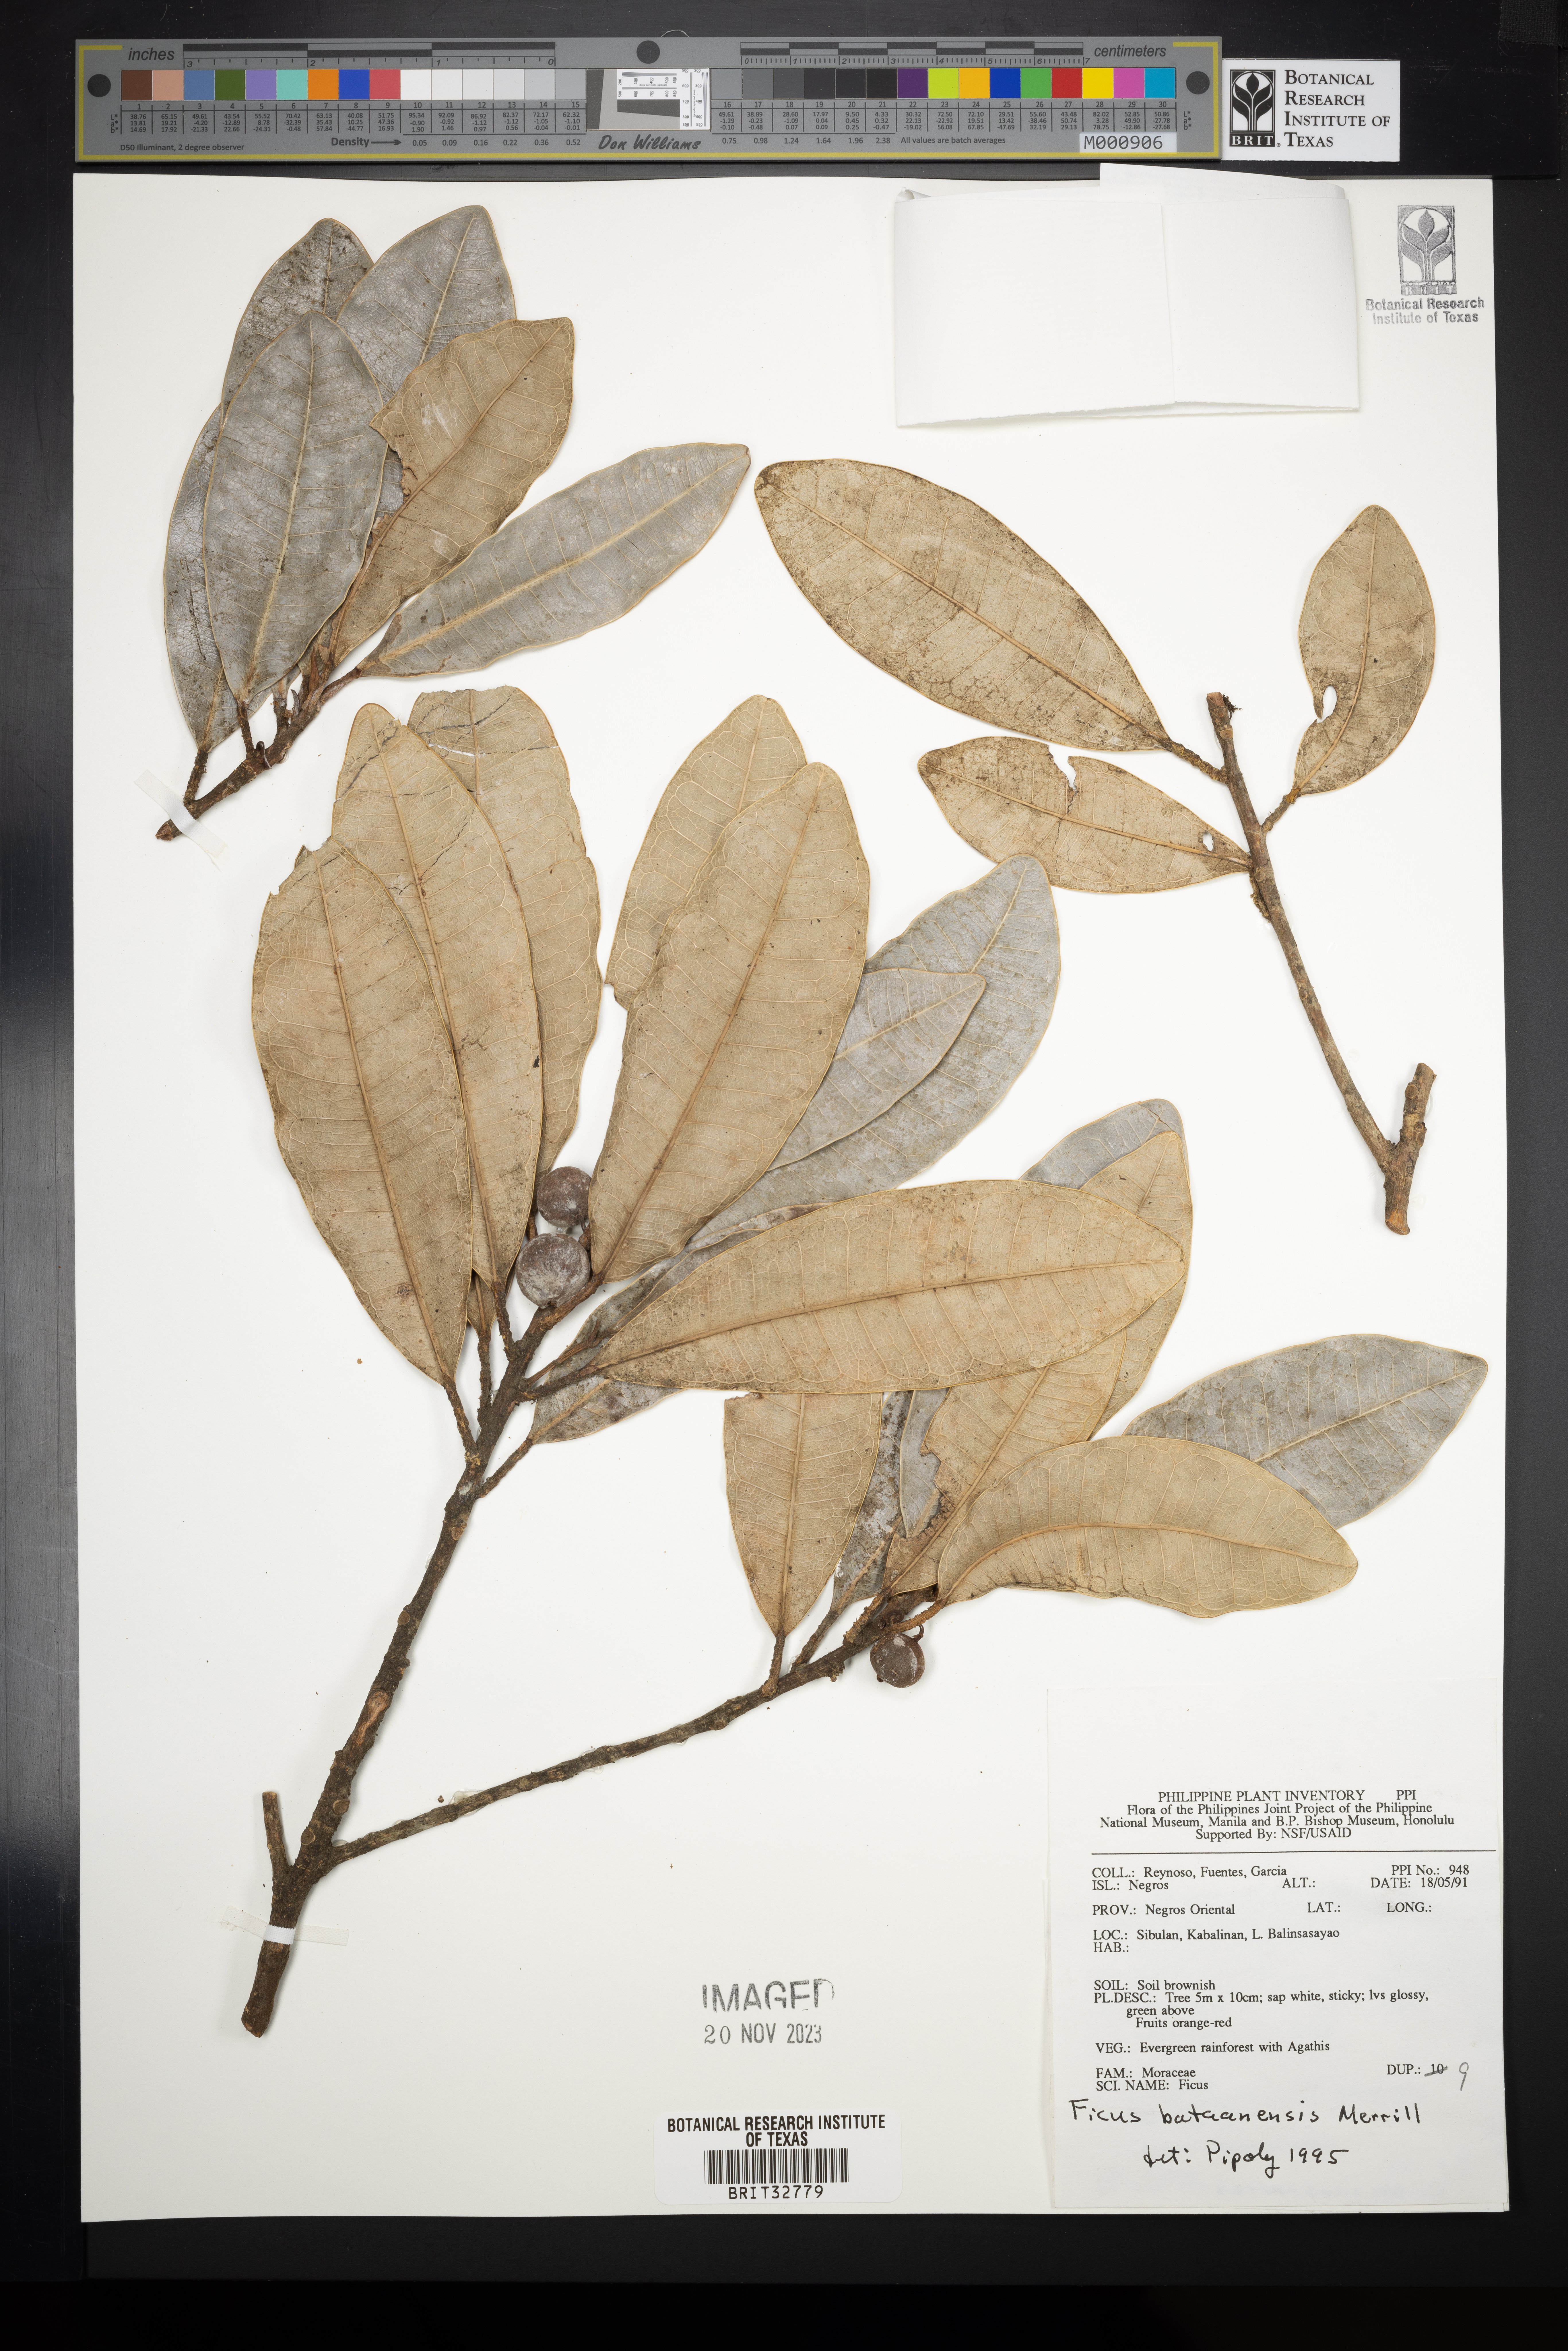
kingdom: Plantae
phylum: Tracheophyta
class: Magnoliopsida
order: Rosales
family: Moraceae
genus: Ficus
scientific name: Ficus bataanensis
